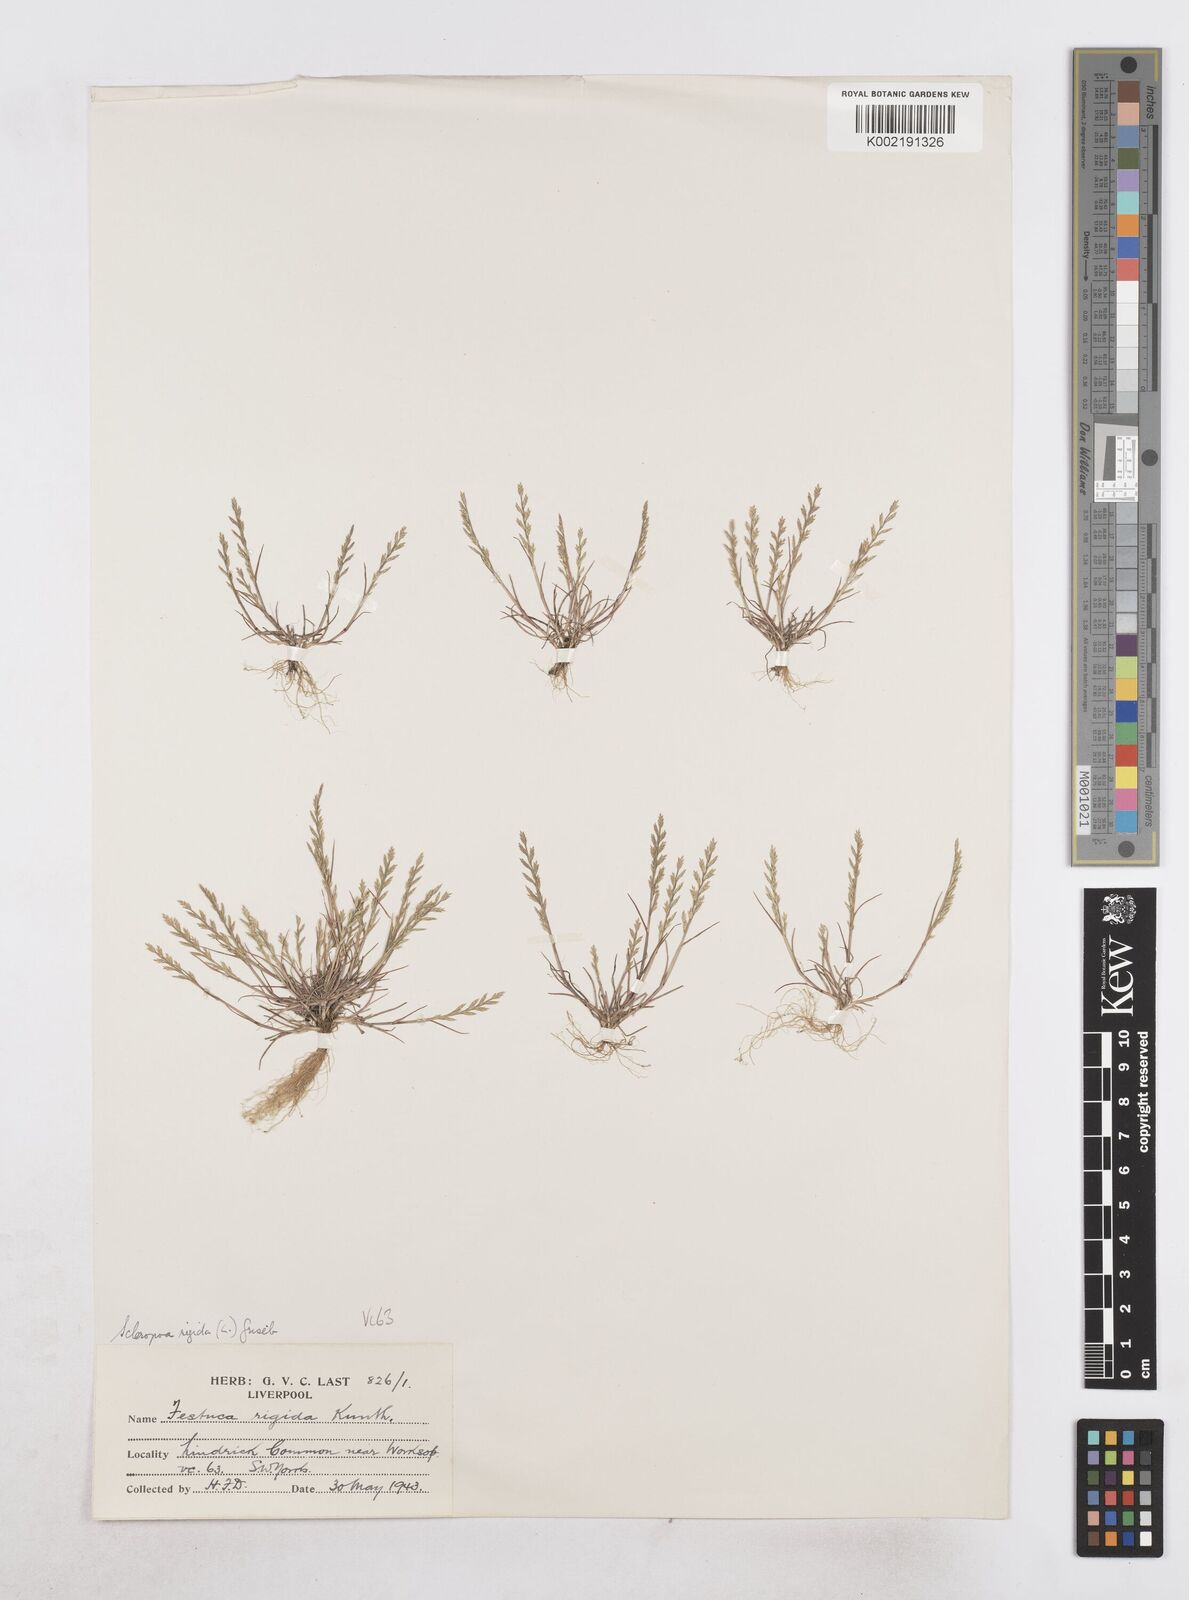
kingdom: Plantae
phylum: Tracheophyta
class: Liliopsida
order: Poales
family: Poaceae
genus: Catapodium
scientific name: Catapodium rigidum
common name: Fern-grass
